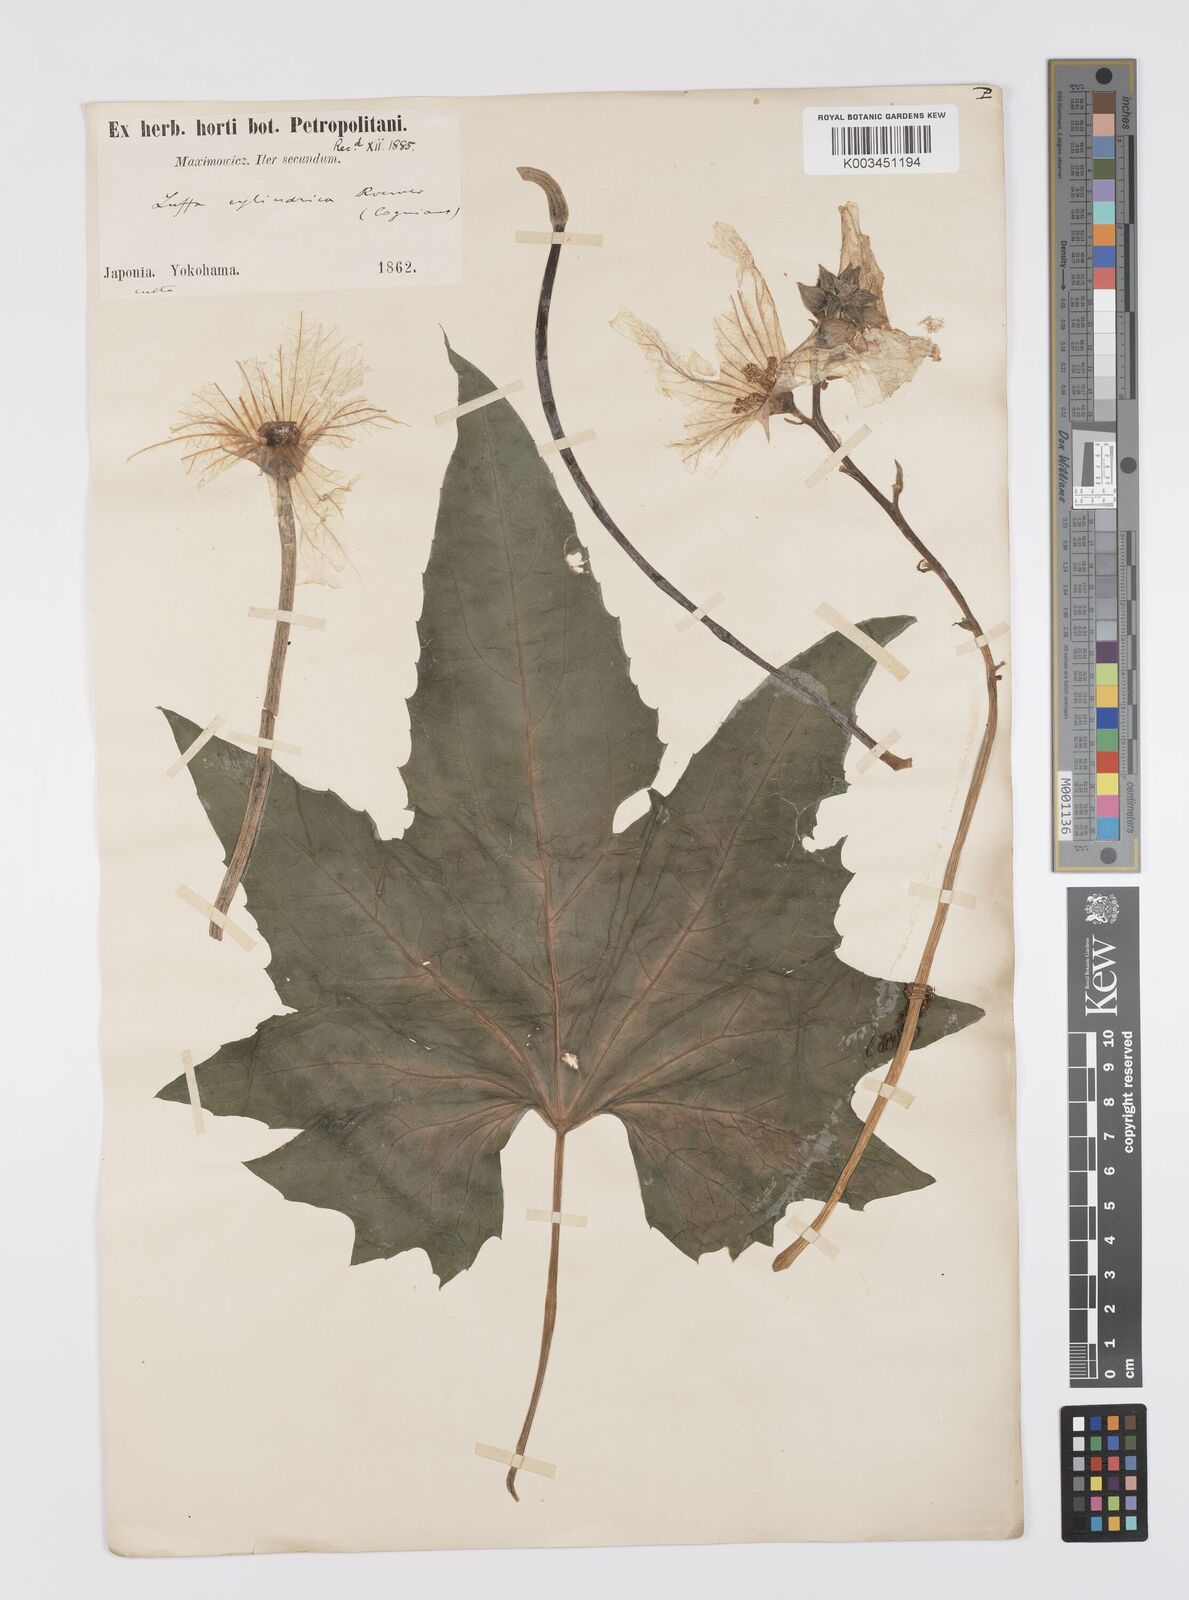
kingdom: Plantae
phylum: Tracheophyta
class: Magnoliopsida
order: Cucurbitales
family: Cucurbitaceae
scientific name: Cucurbitaceae
